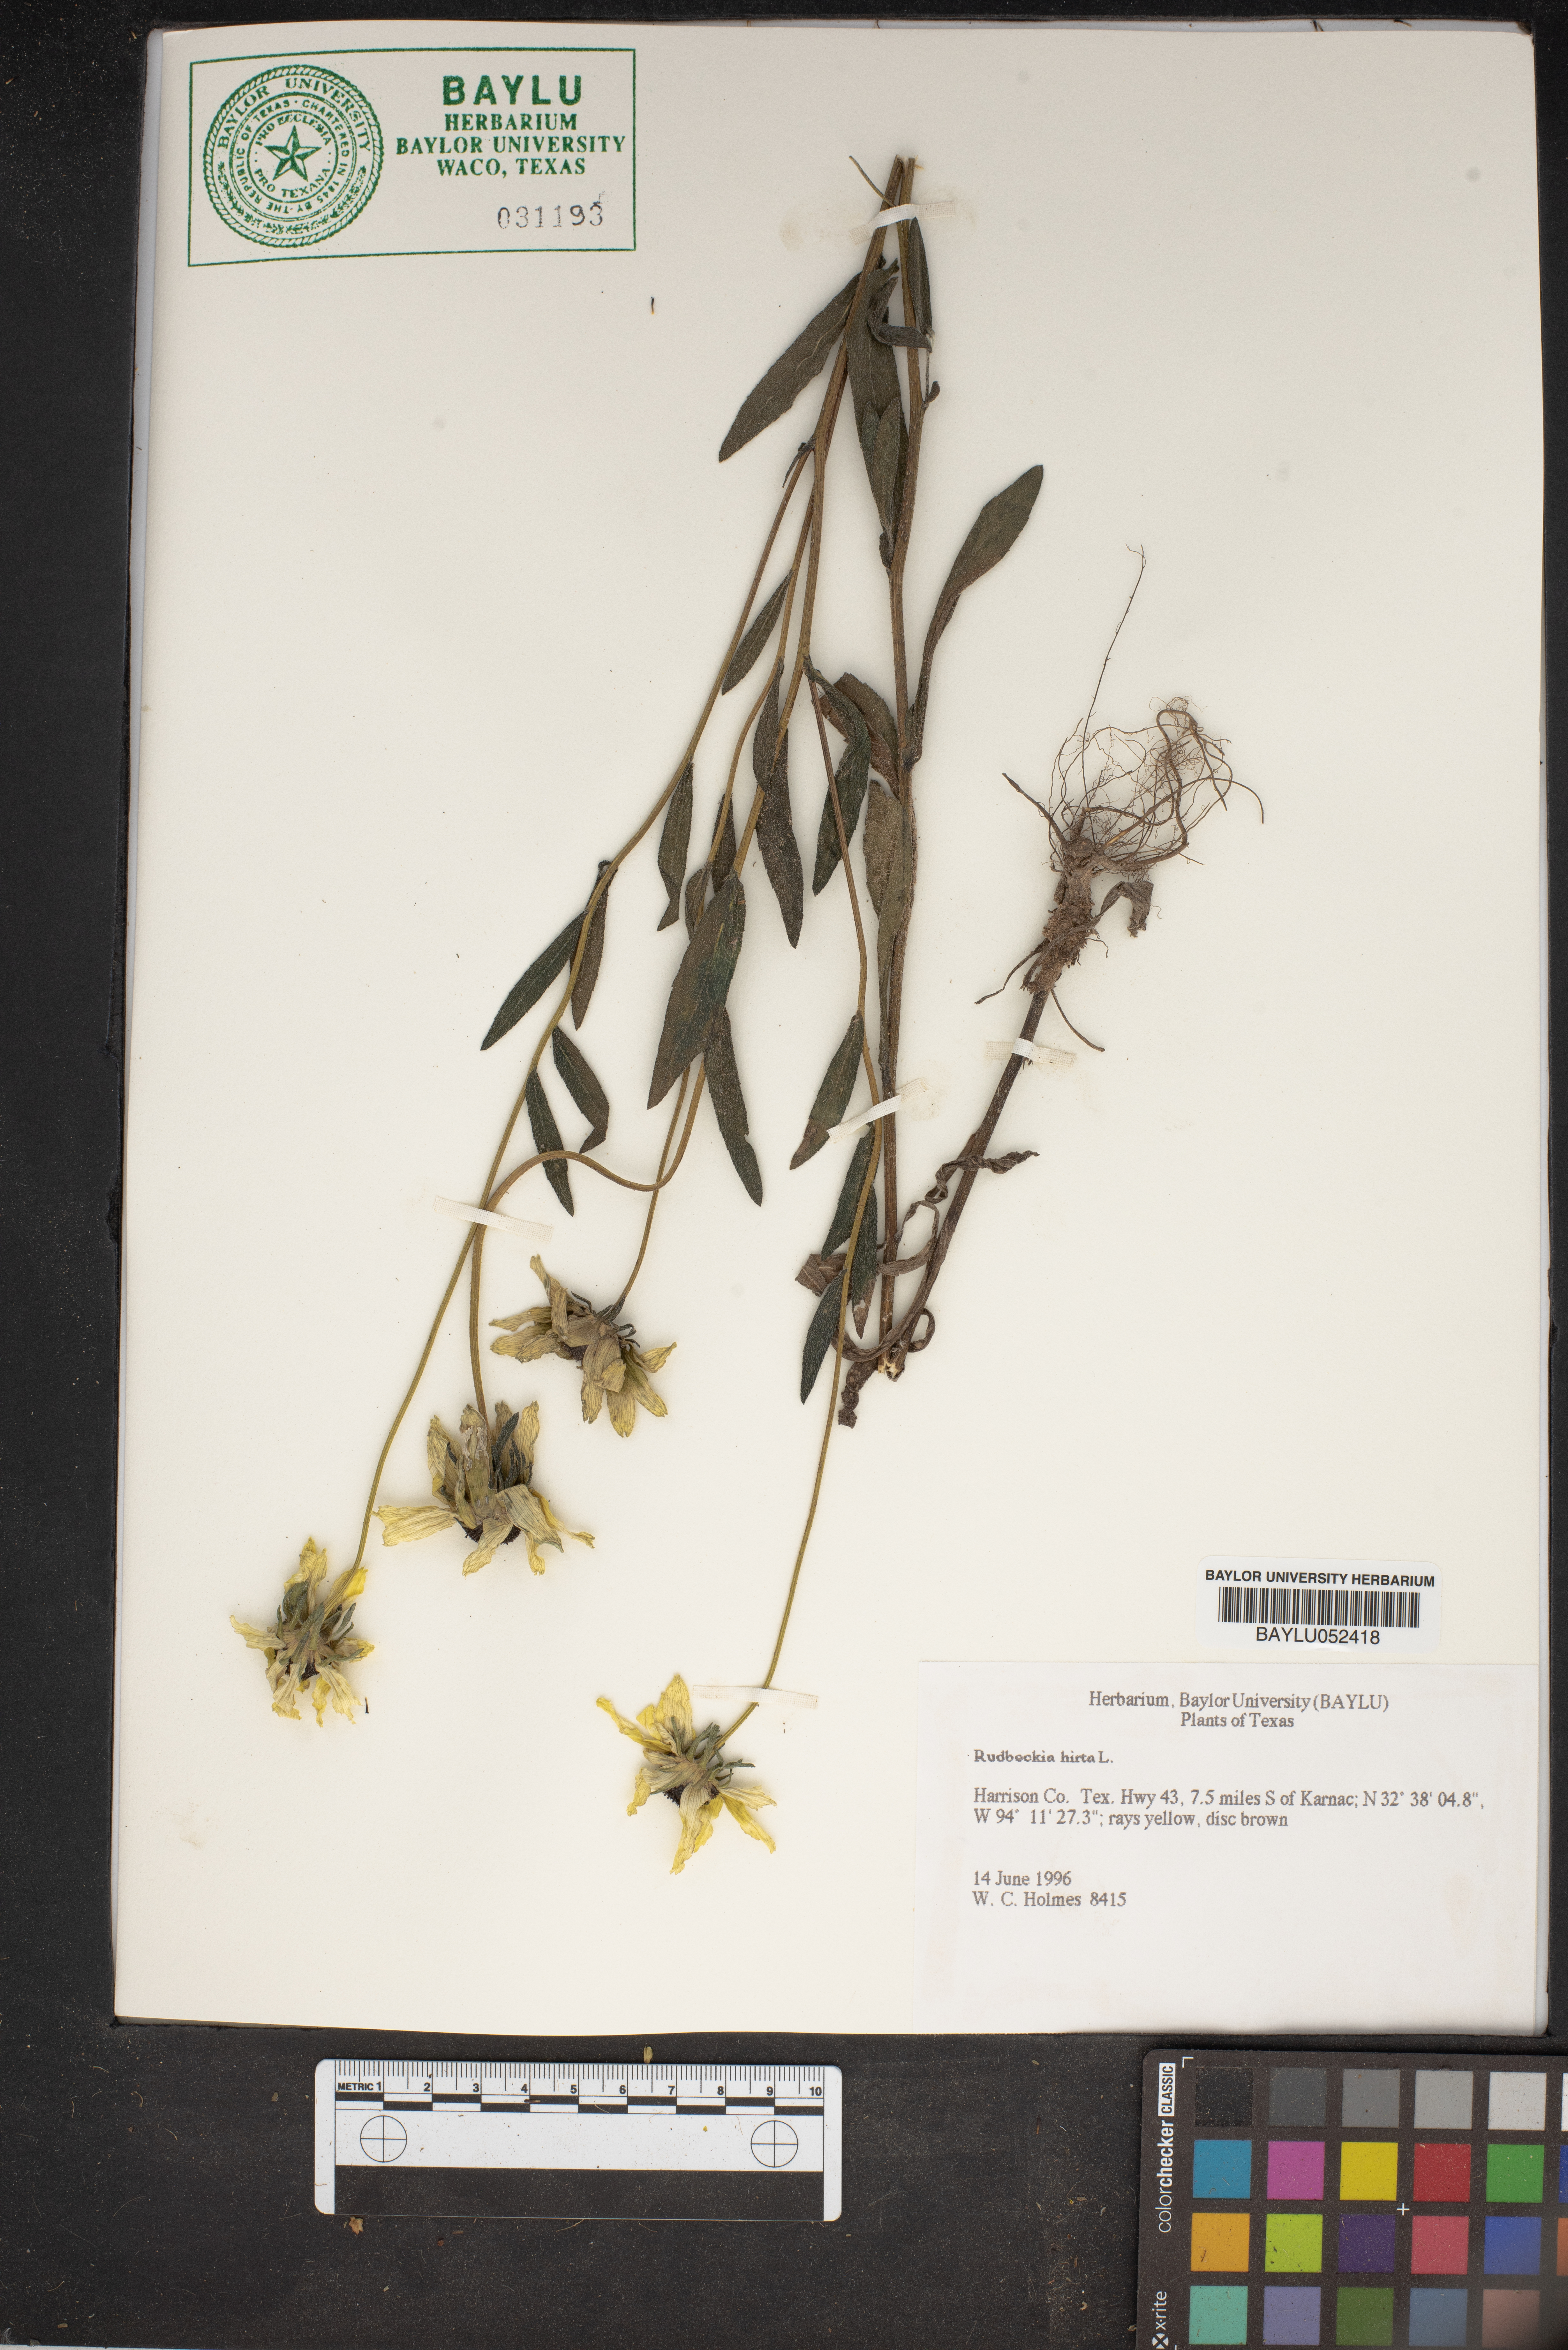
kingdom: Plantae
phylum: Tracheophyta
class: Magnoliopsida
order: Asterales
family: Asteraceae
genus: Rudbeckia
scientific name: Rudbeckia hirta
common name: Black-eyed-susan
